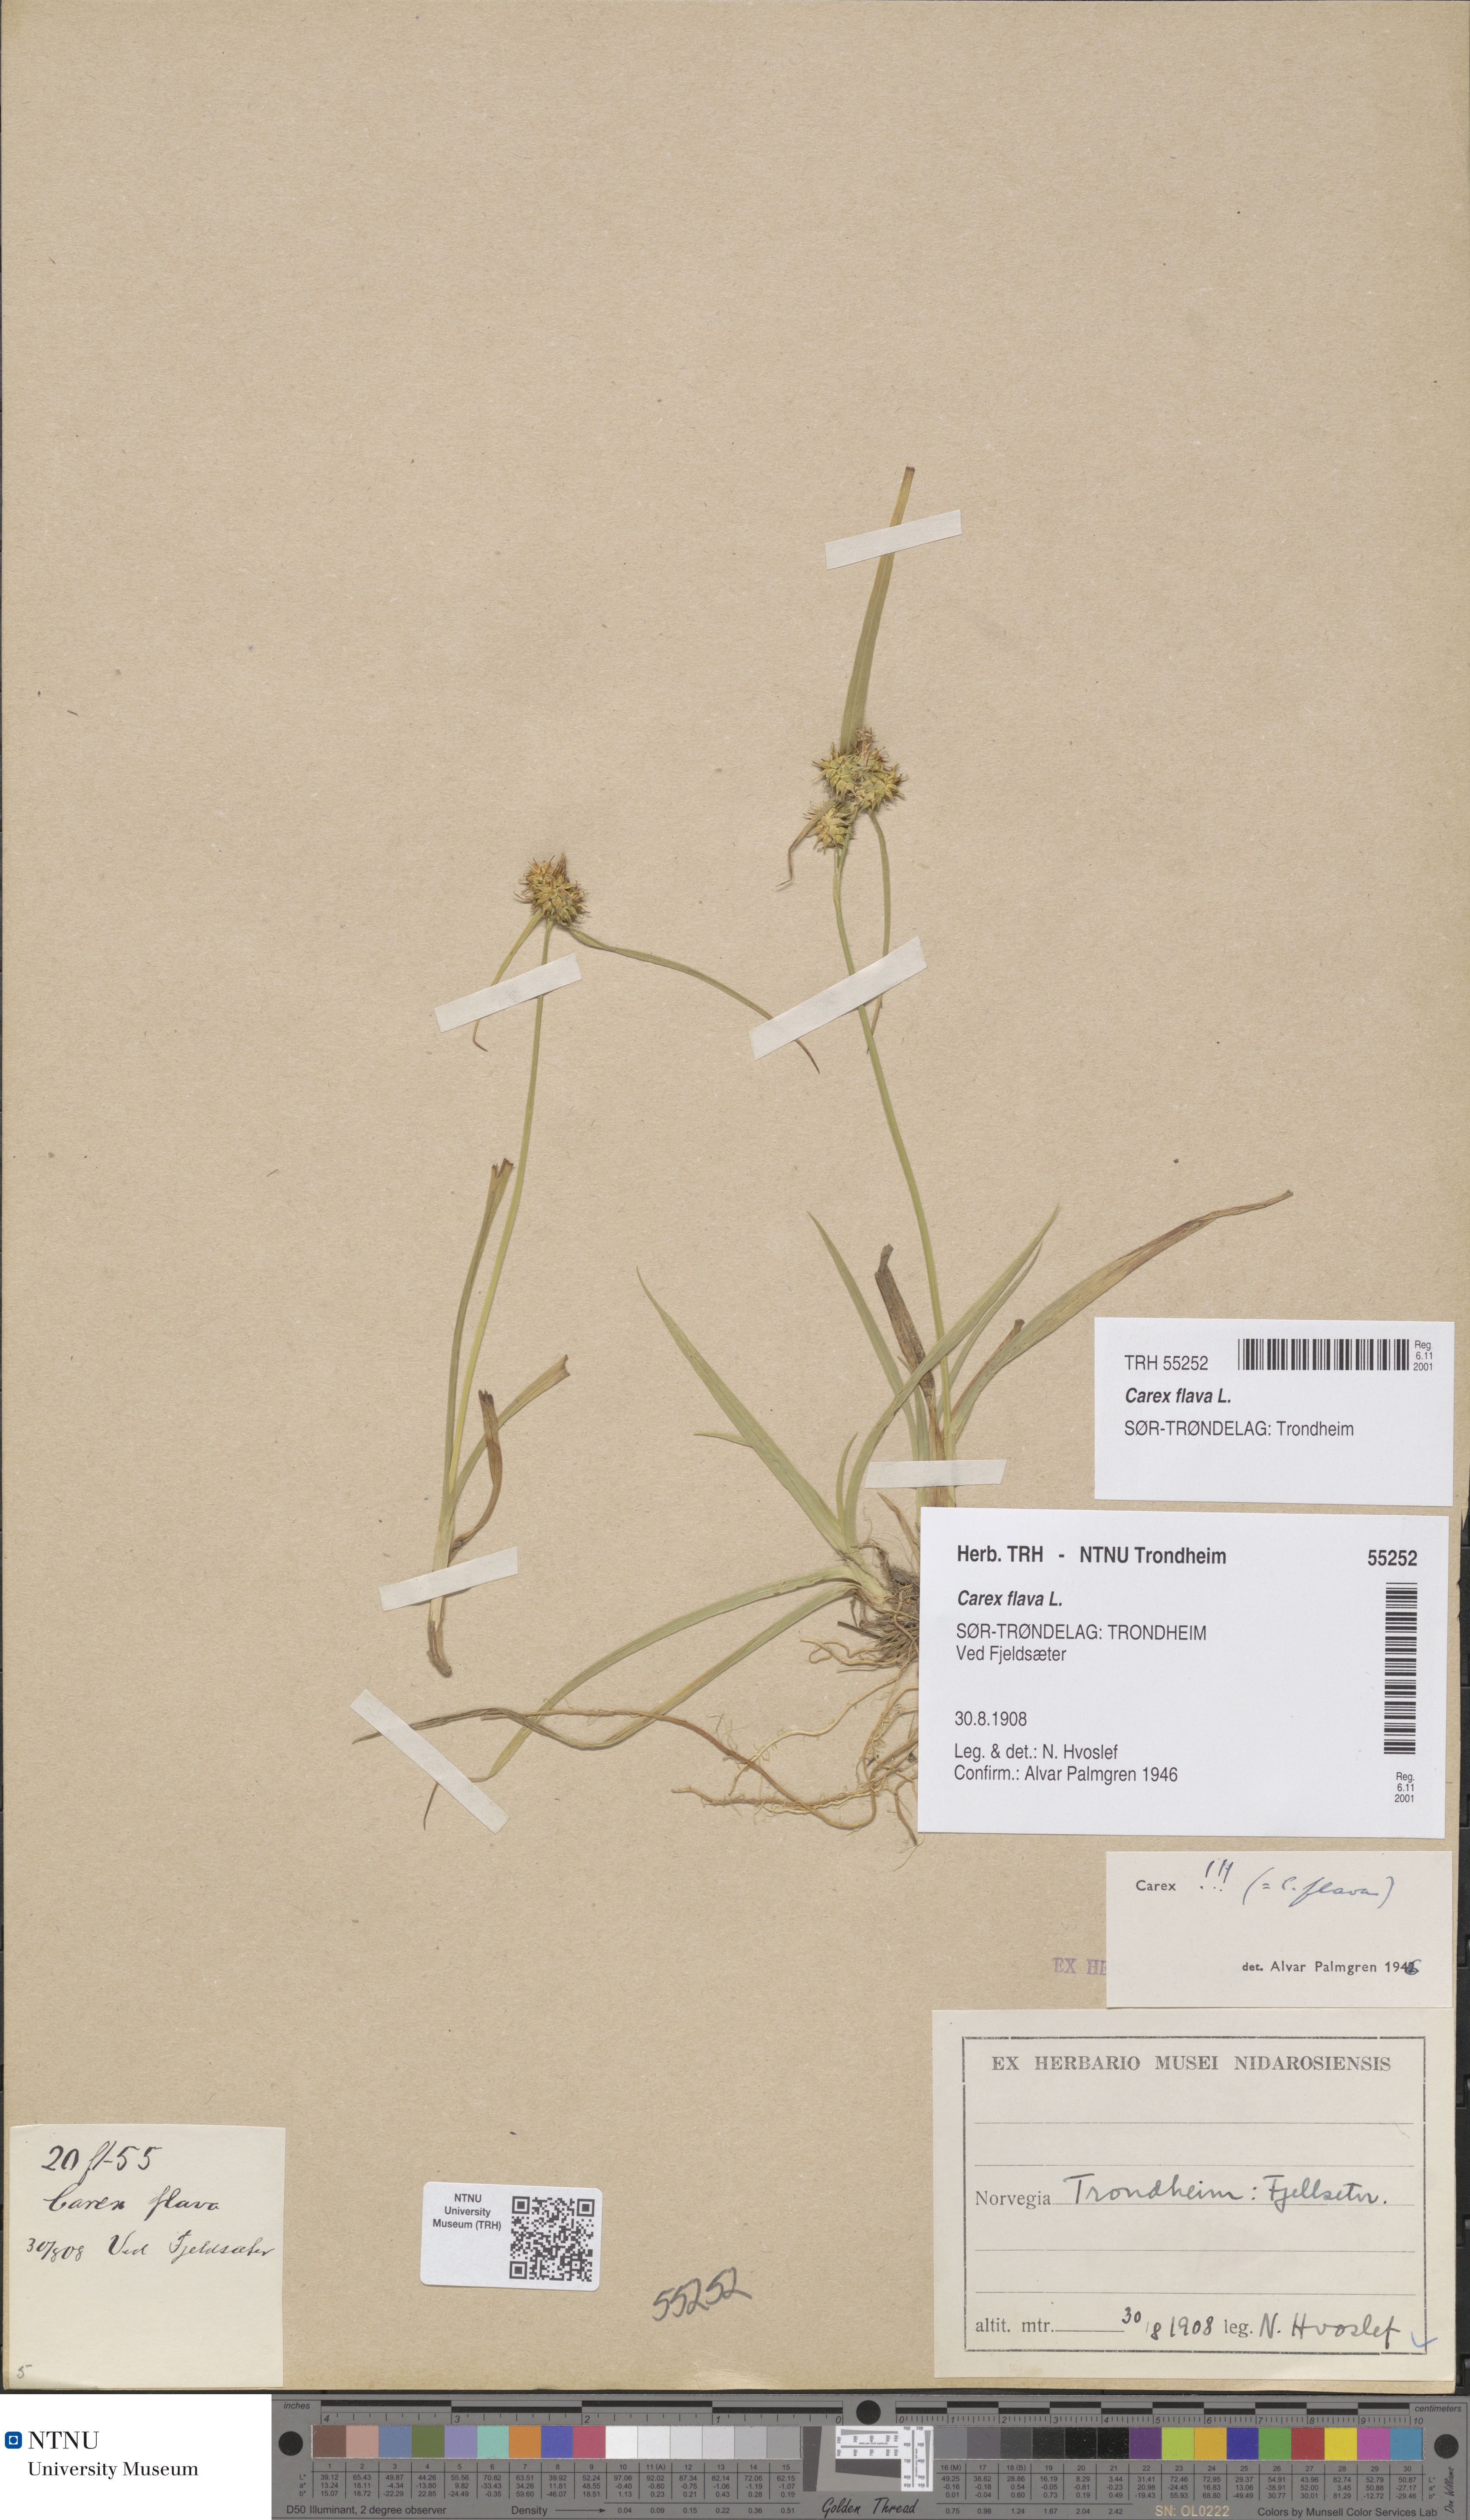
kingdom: Plantae
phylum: Tracheophyta
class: Liliopsida
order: Poales
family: Cyperaceae
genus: Carex
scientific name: Carex flava
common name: Large yellow-sedge
